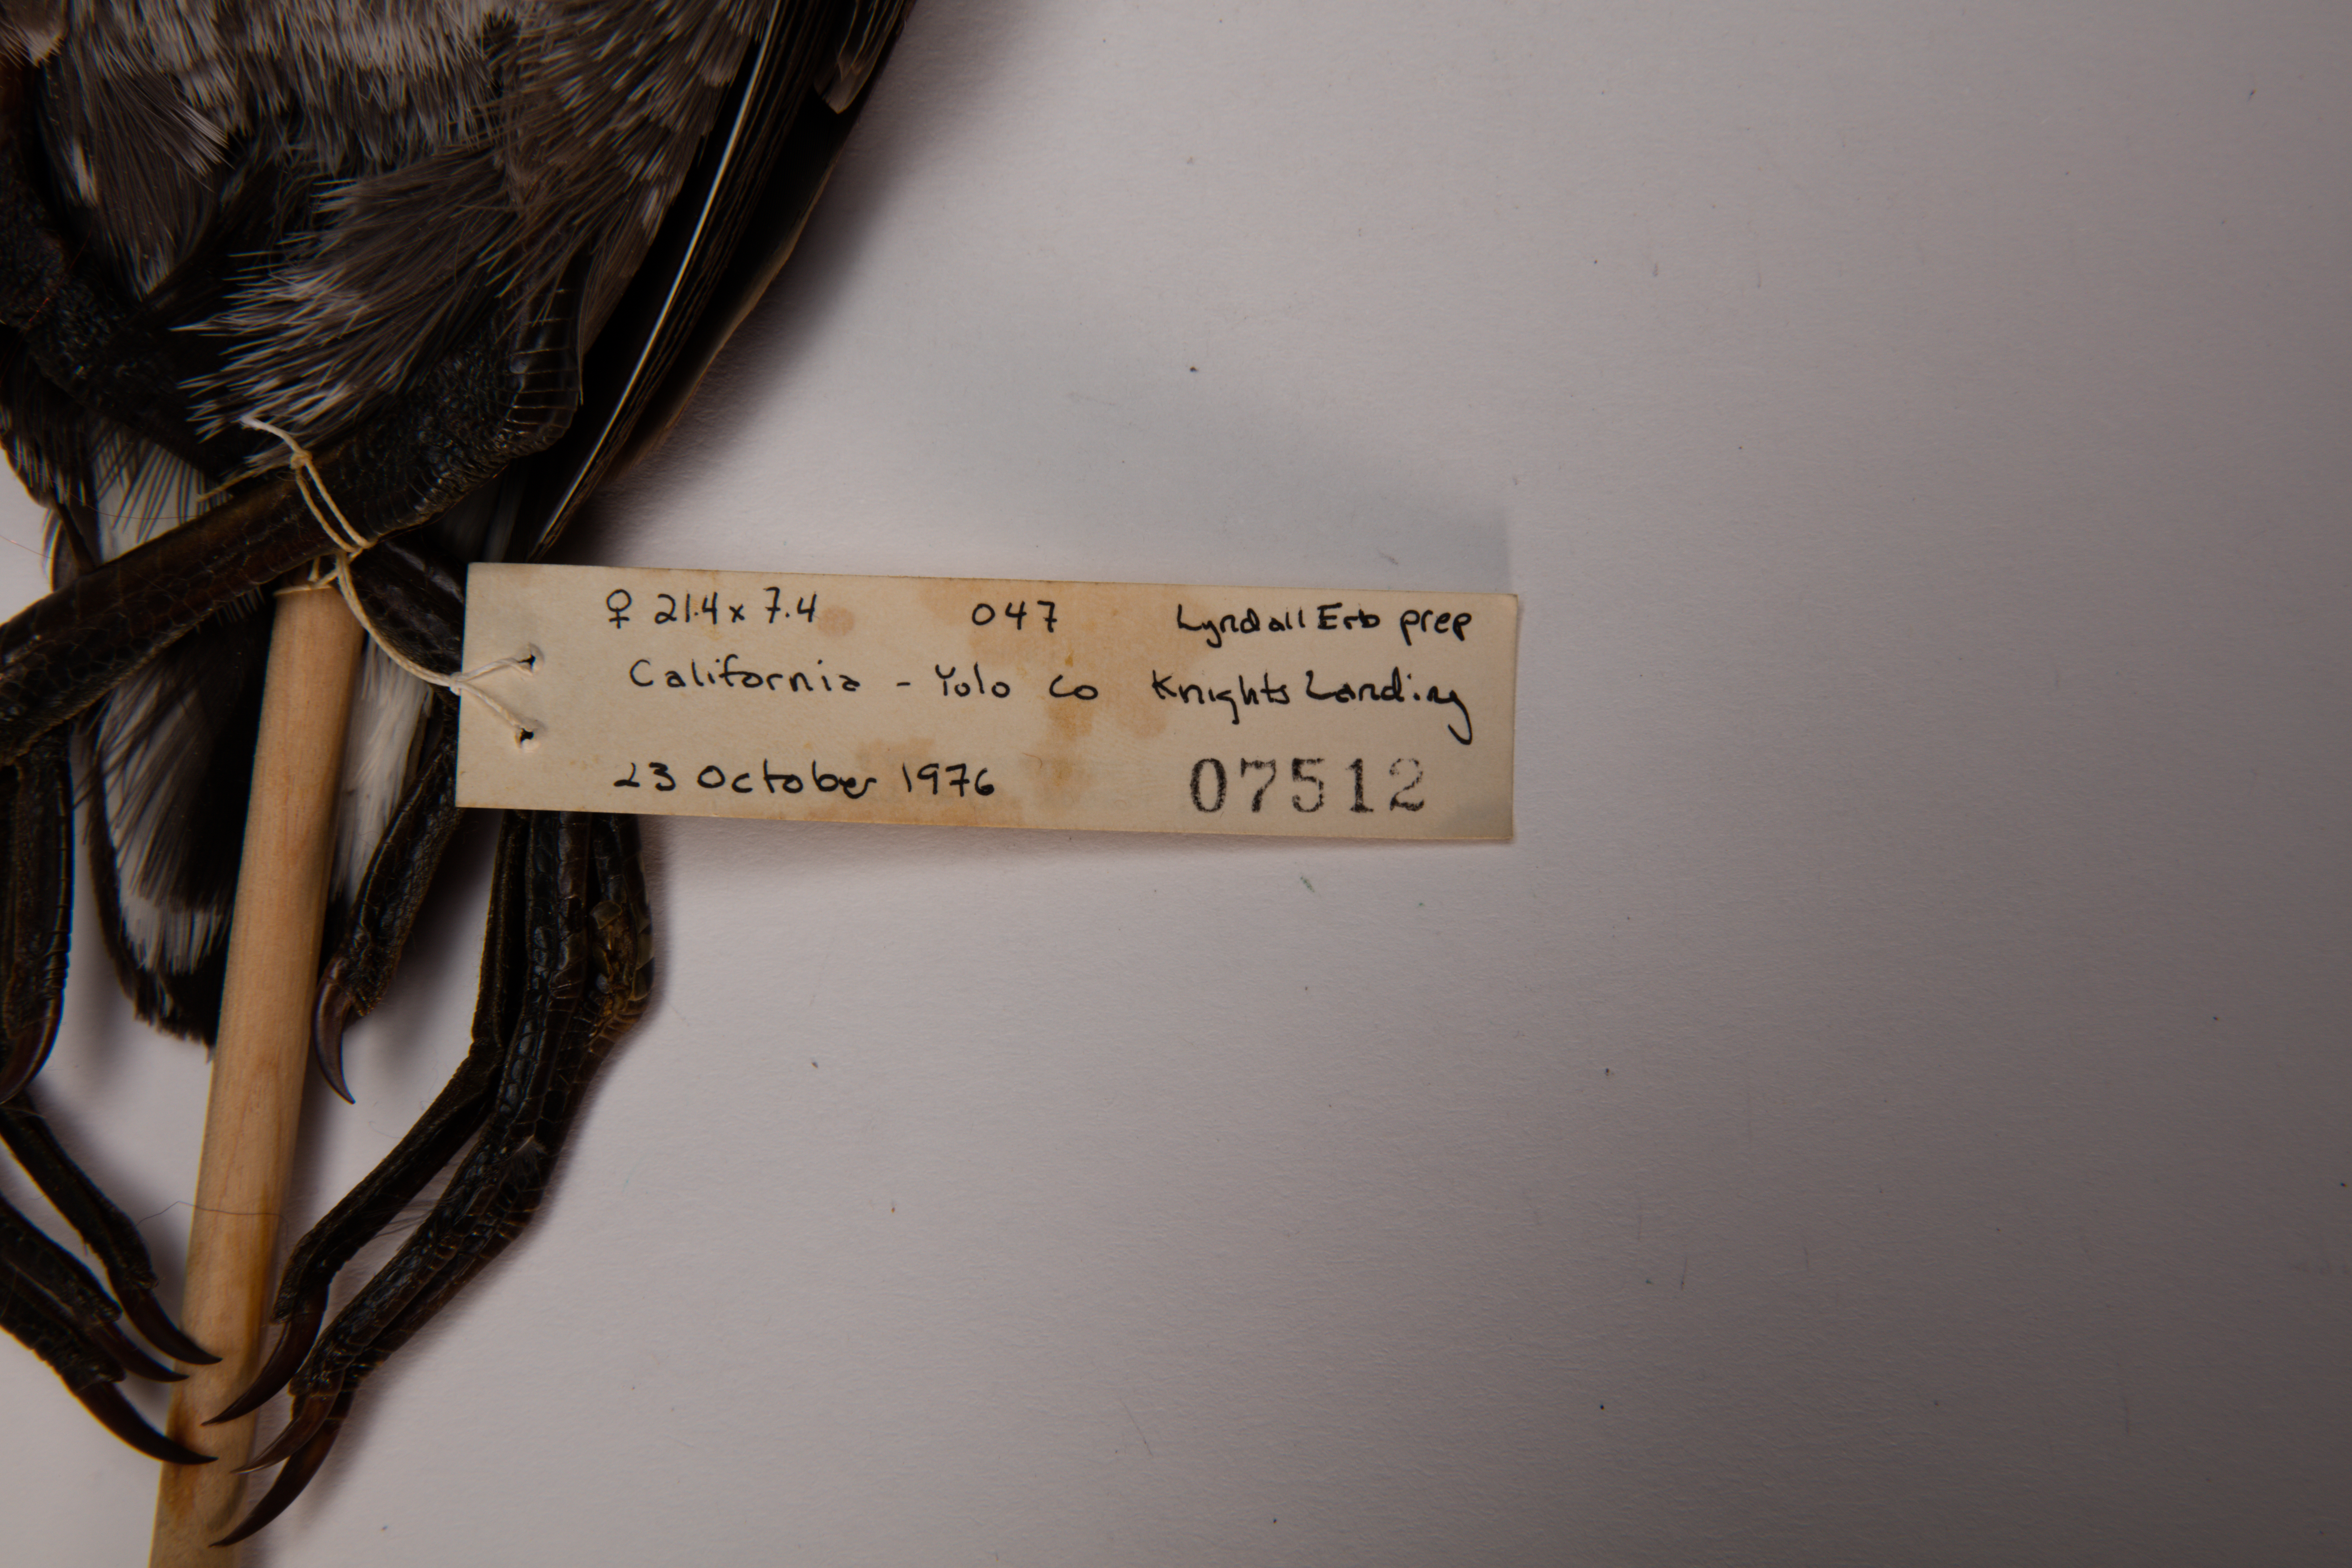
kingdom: Animalia
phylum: Chordata
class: Aves
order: Gruiformes
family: Rallidae
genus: Gallinula
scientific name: Gallinula chloropus
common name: Common moorhen
